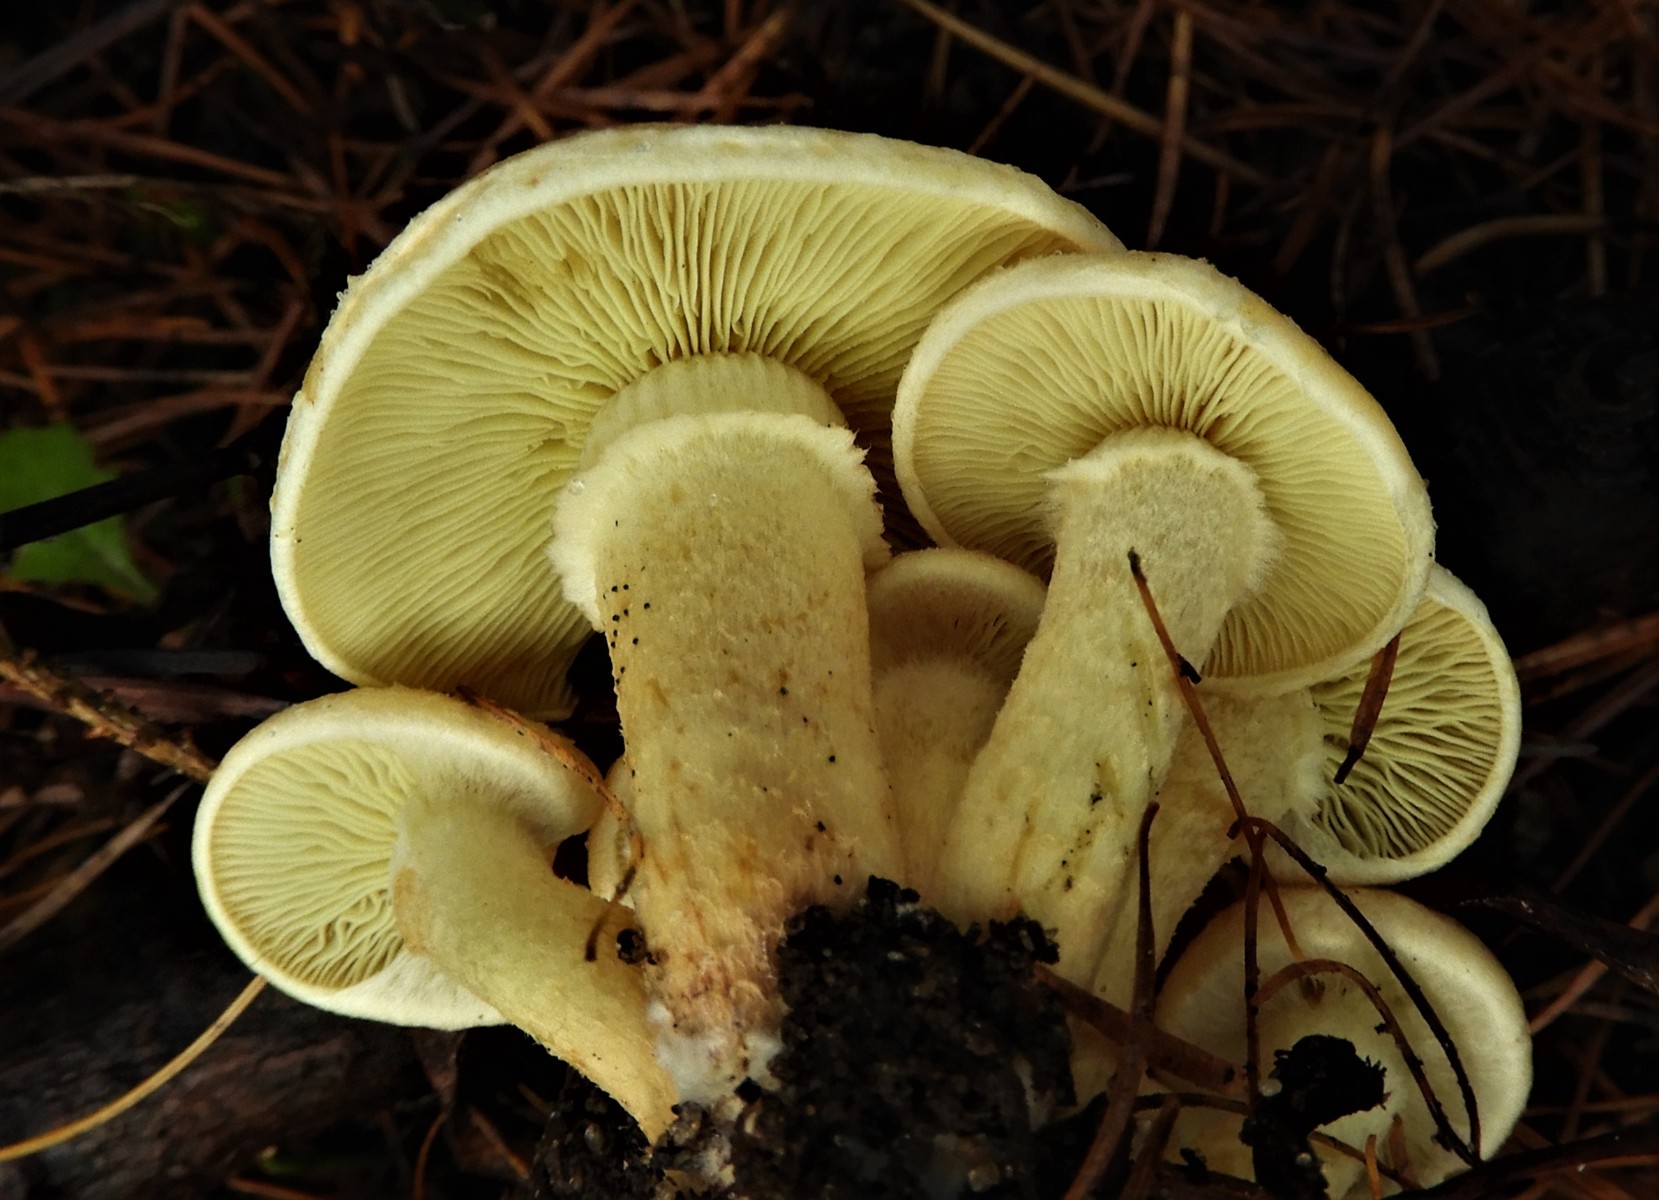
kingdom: Fungi
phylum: Basidiomycota
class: Agaricomycetes
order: Agaricales
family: Strophariaceae
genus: Hypholoma
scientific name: Hypholoma fasciculare
